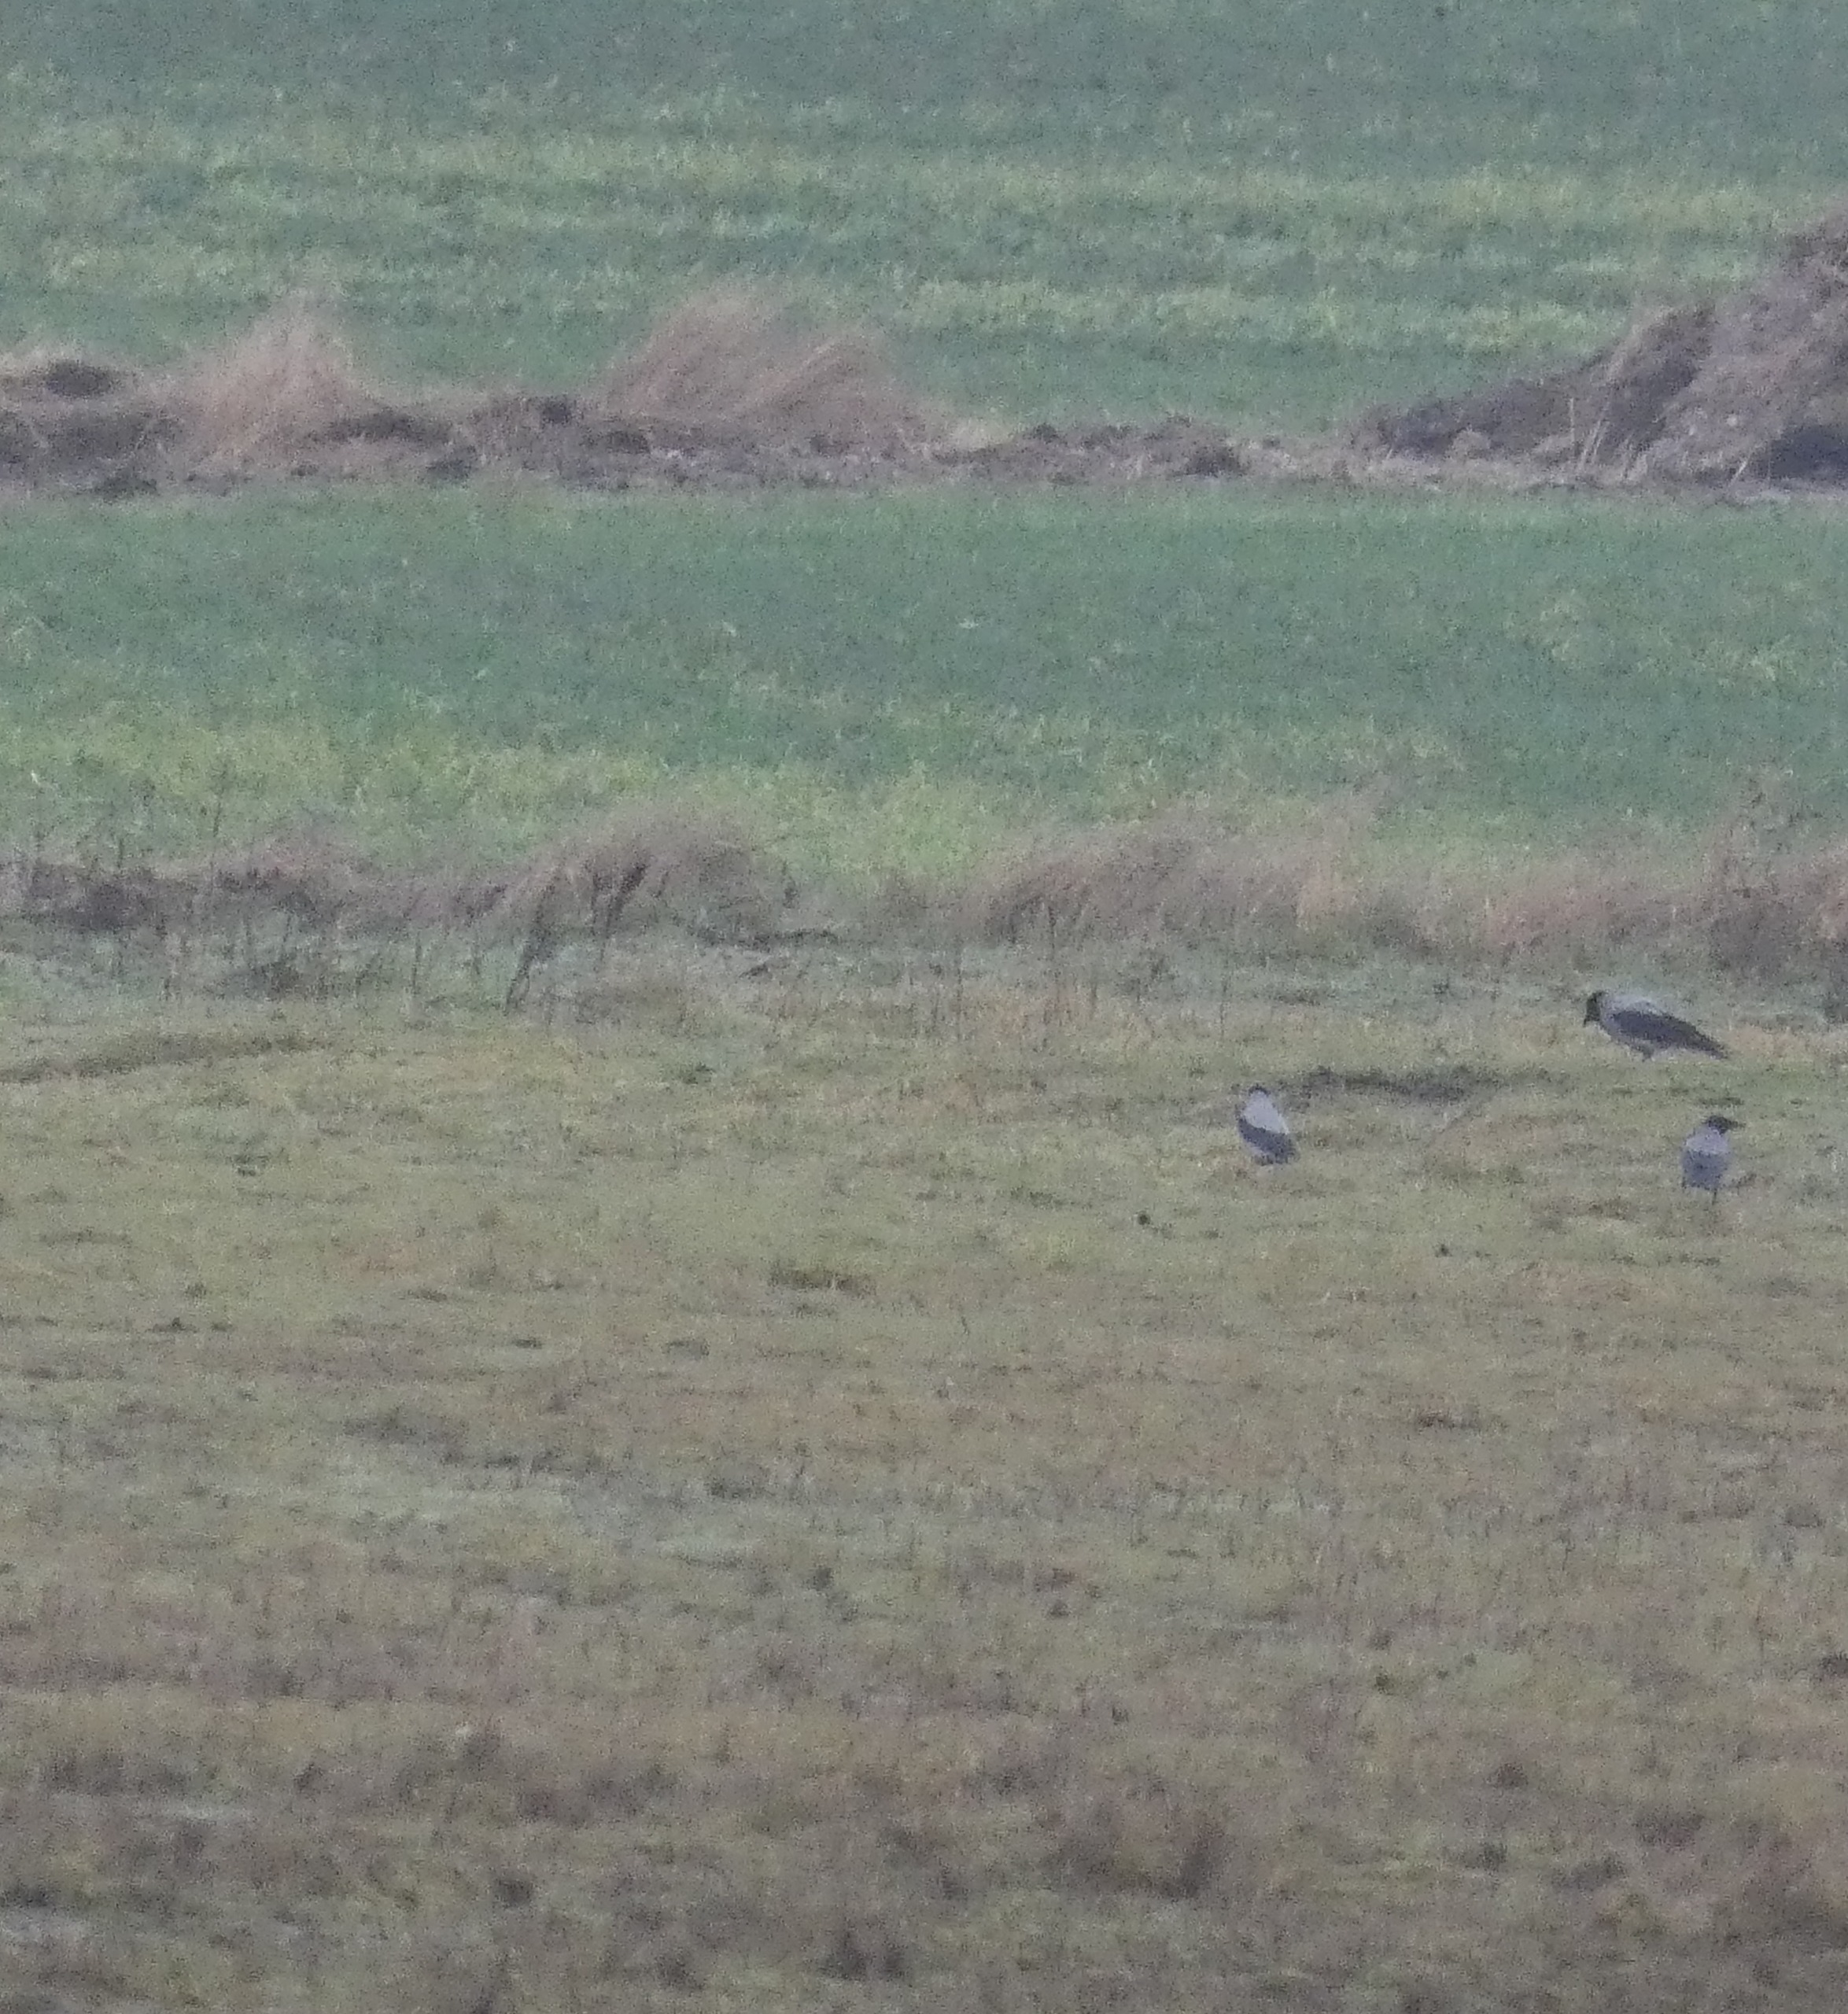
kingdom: Animalia
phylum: Chordata
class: Aves
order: Passeriformes
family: Corvidae
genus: Corvus
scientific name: Corvus cornix
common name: Gråkrage
